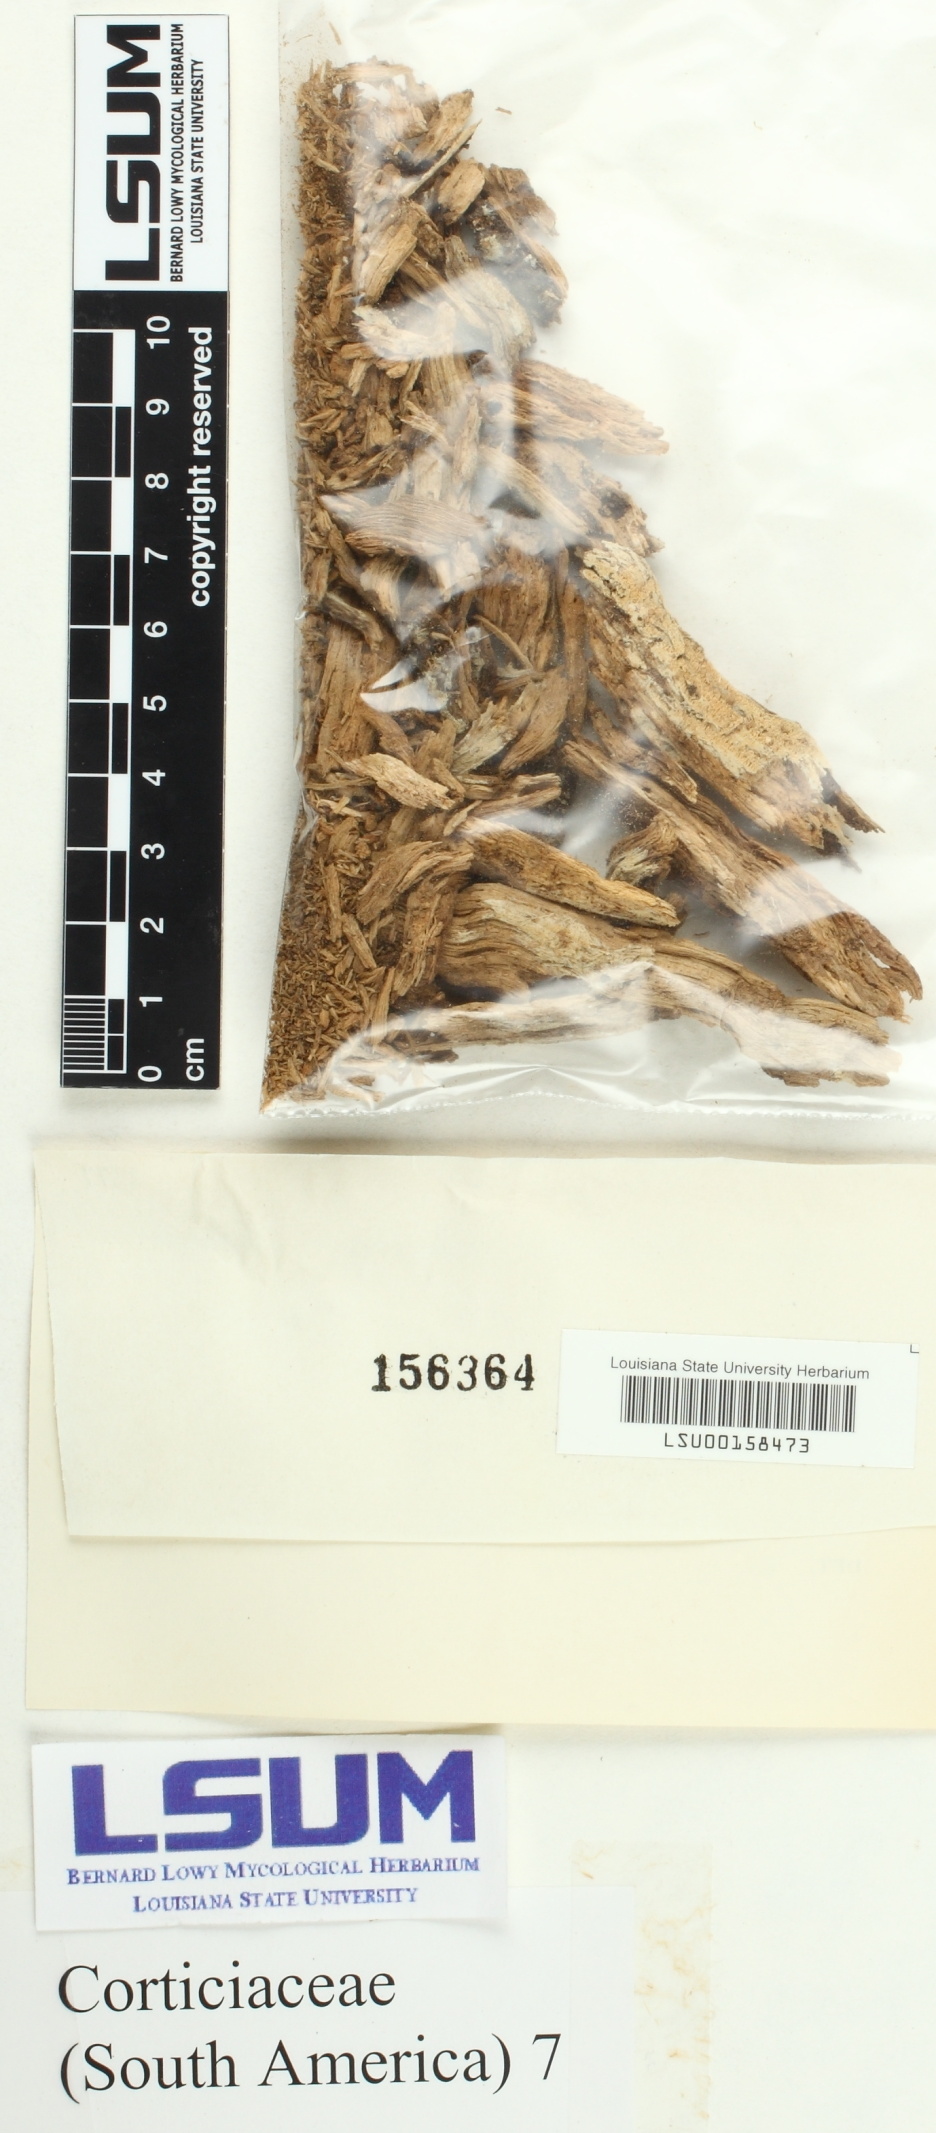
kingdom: Fungi
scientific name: Fungi
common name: Fungi
